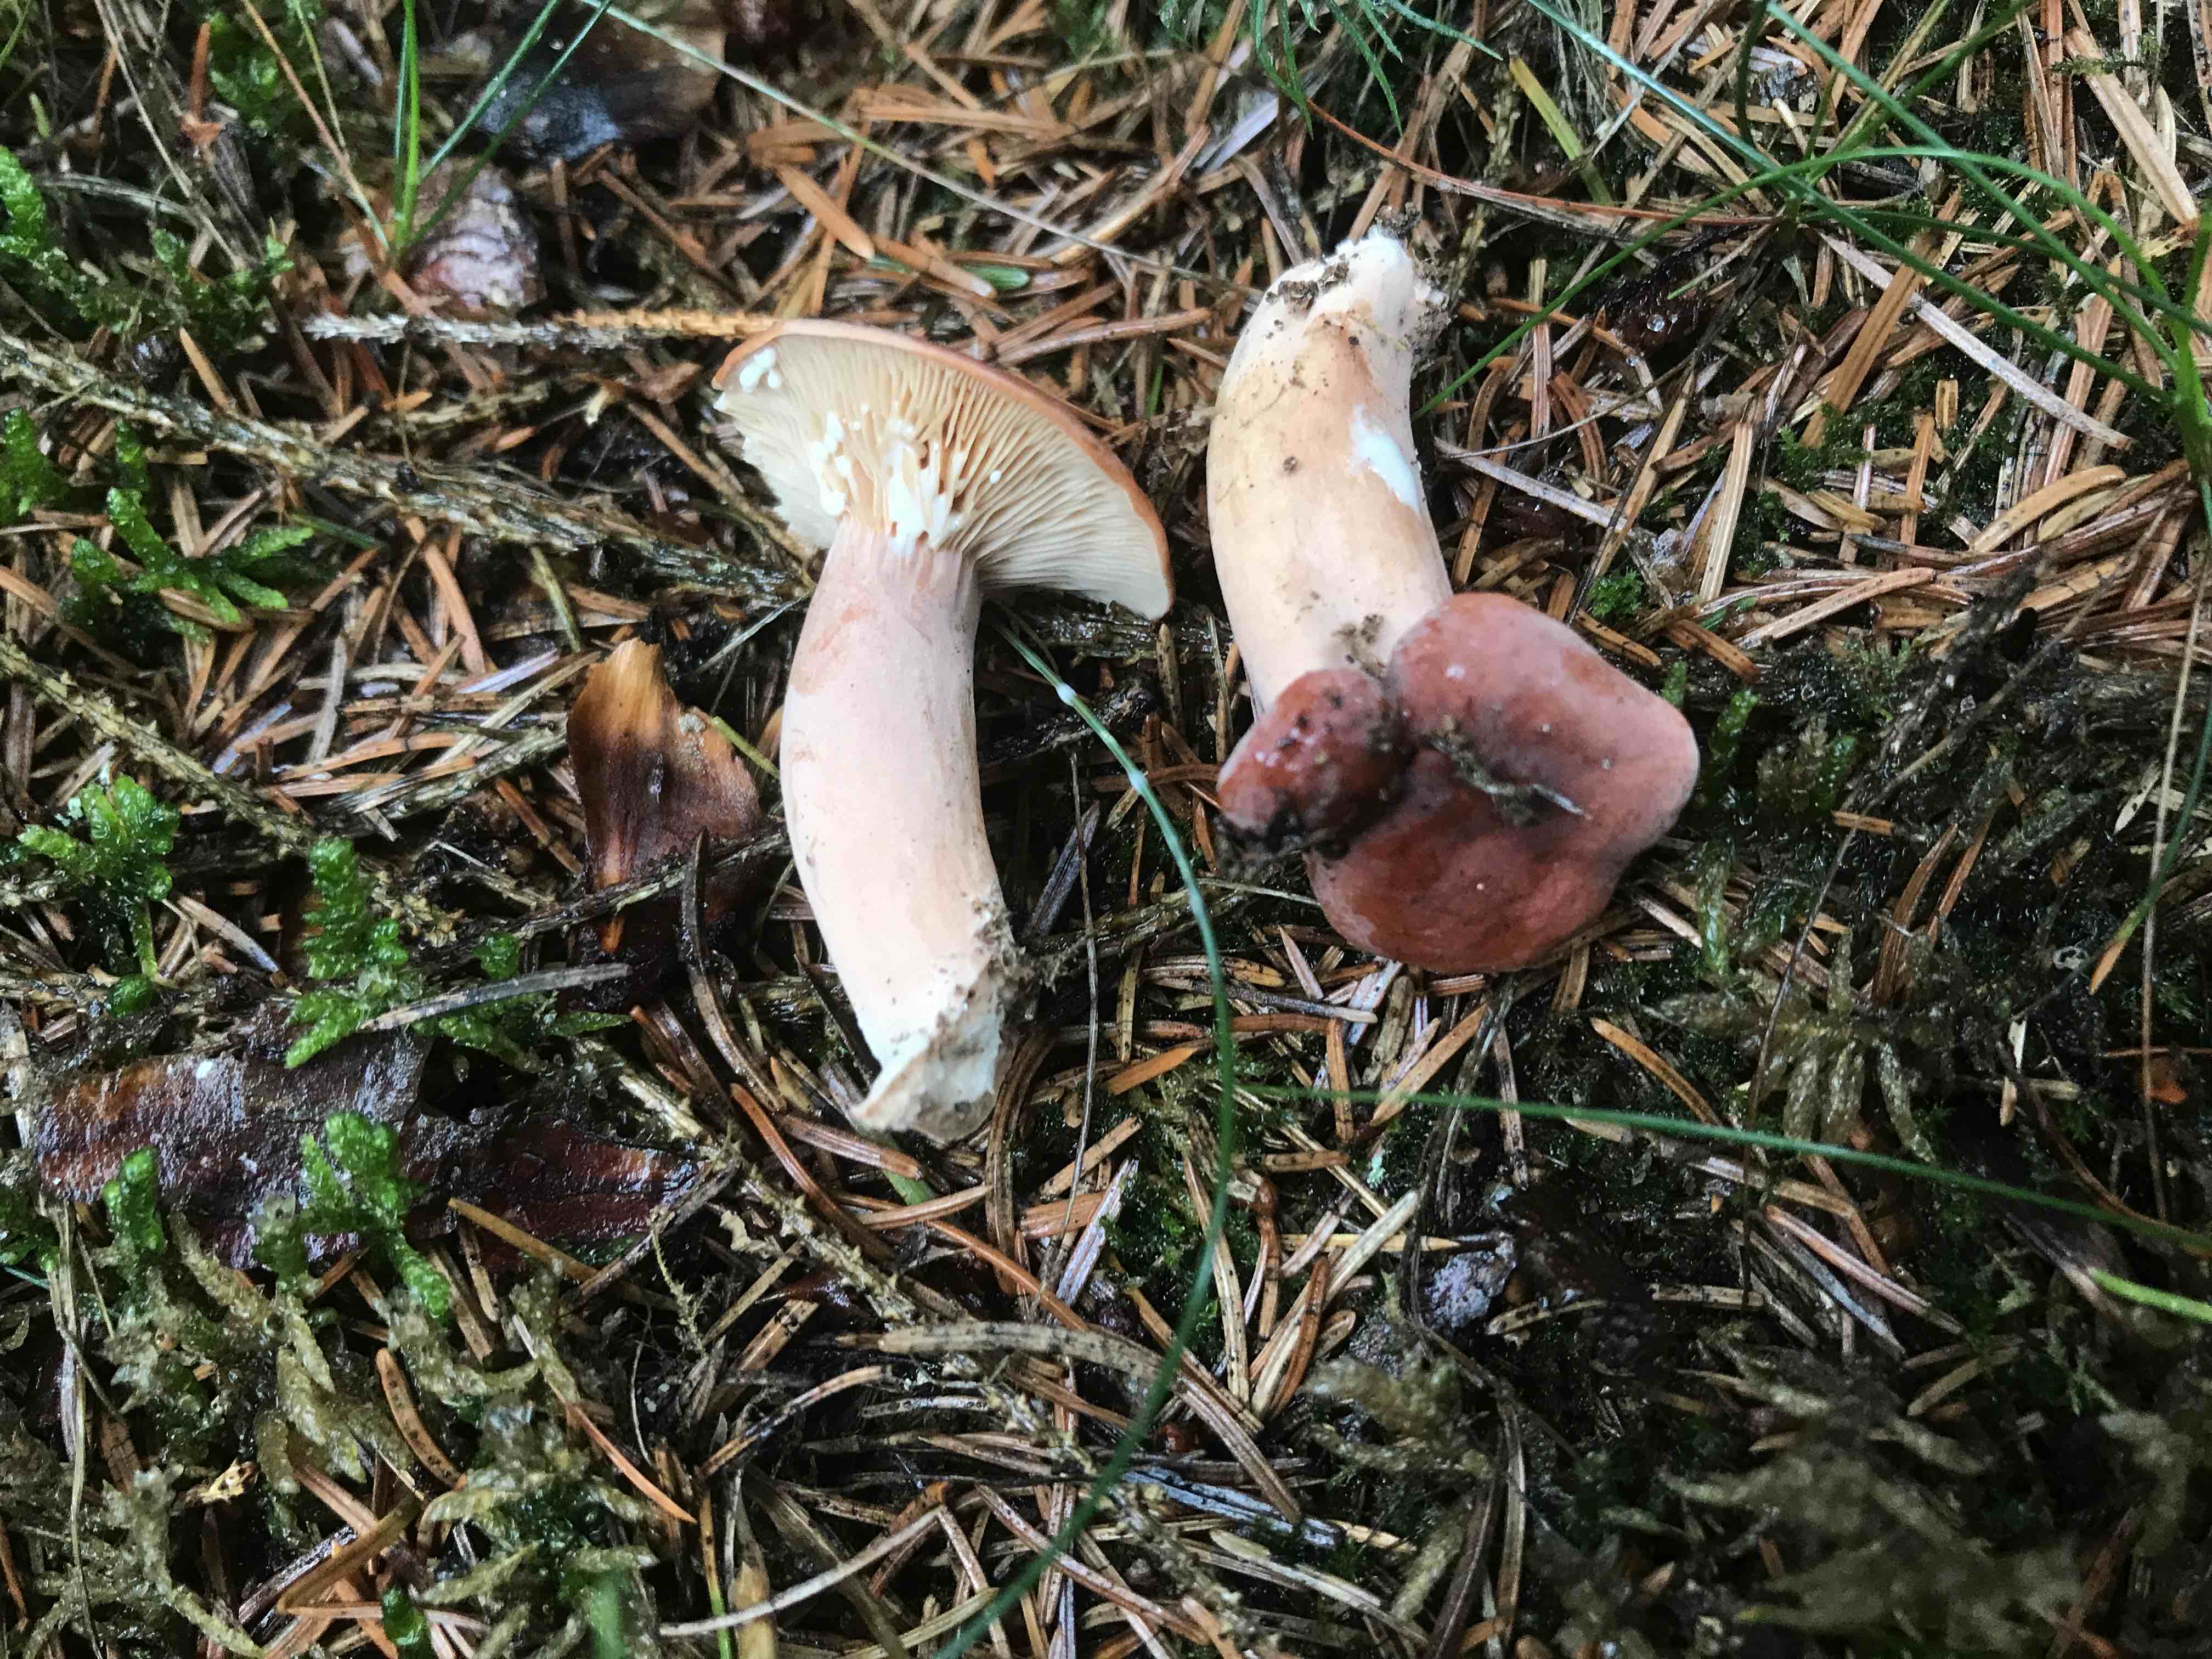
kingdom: Fungi
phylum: Basidiomycota
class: Agaricomycetes
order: Russulales
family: Russulaceae
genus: Lactarius
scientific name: Lactarius rufus
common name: rødbrun mælkehat
